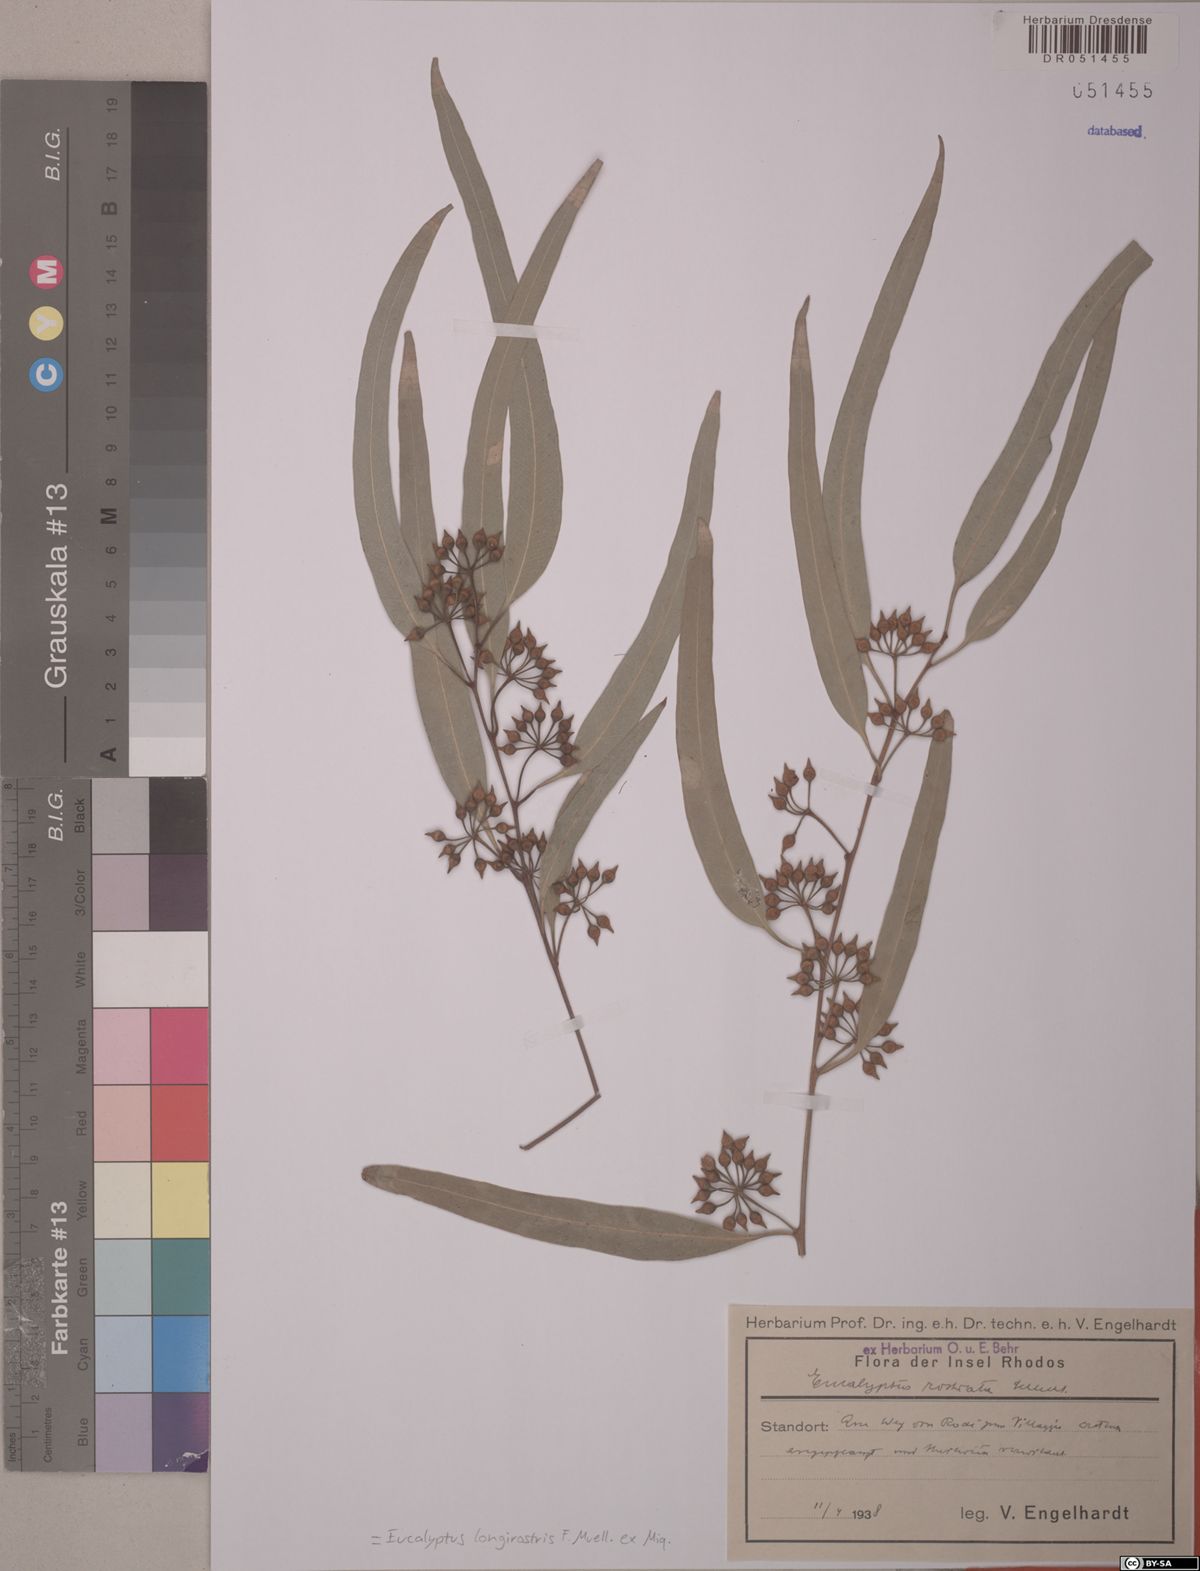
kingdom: Plantae
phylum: Tracheophyta
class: Magnoliopsida
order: Myrtales
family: Myrtaceae
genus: Eucalyptus
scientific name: Eucalyptus camaldulensis
